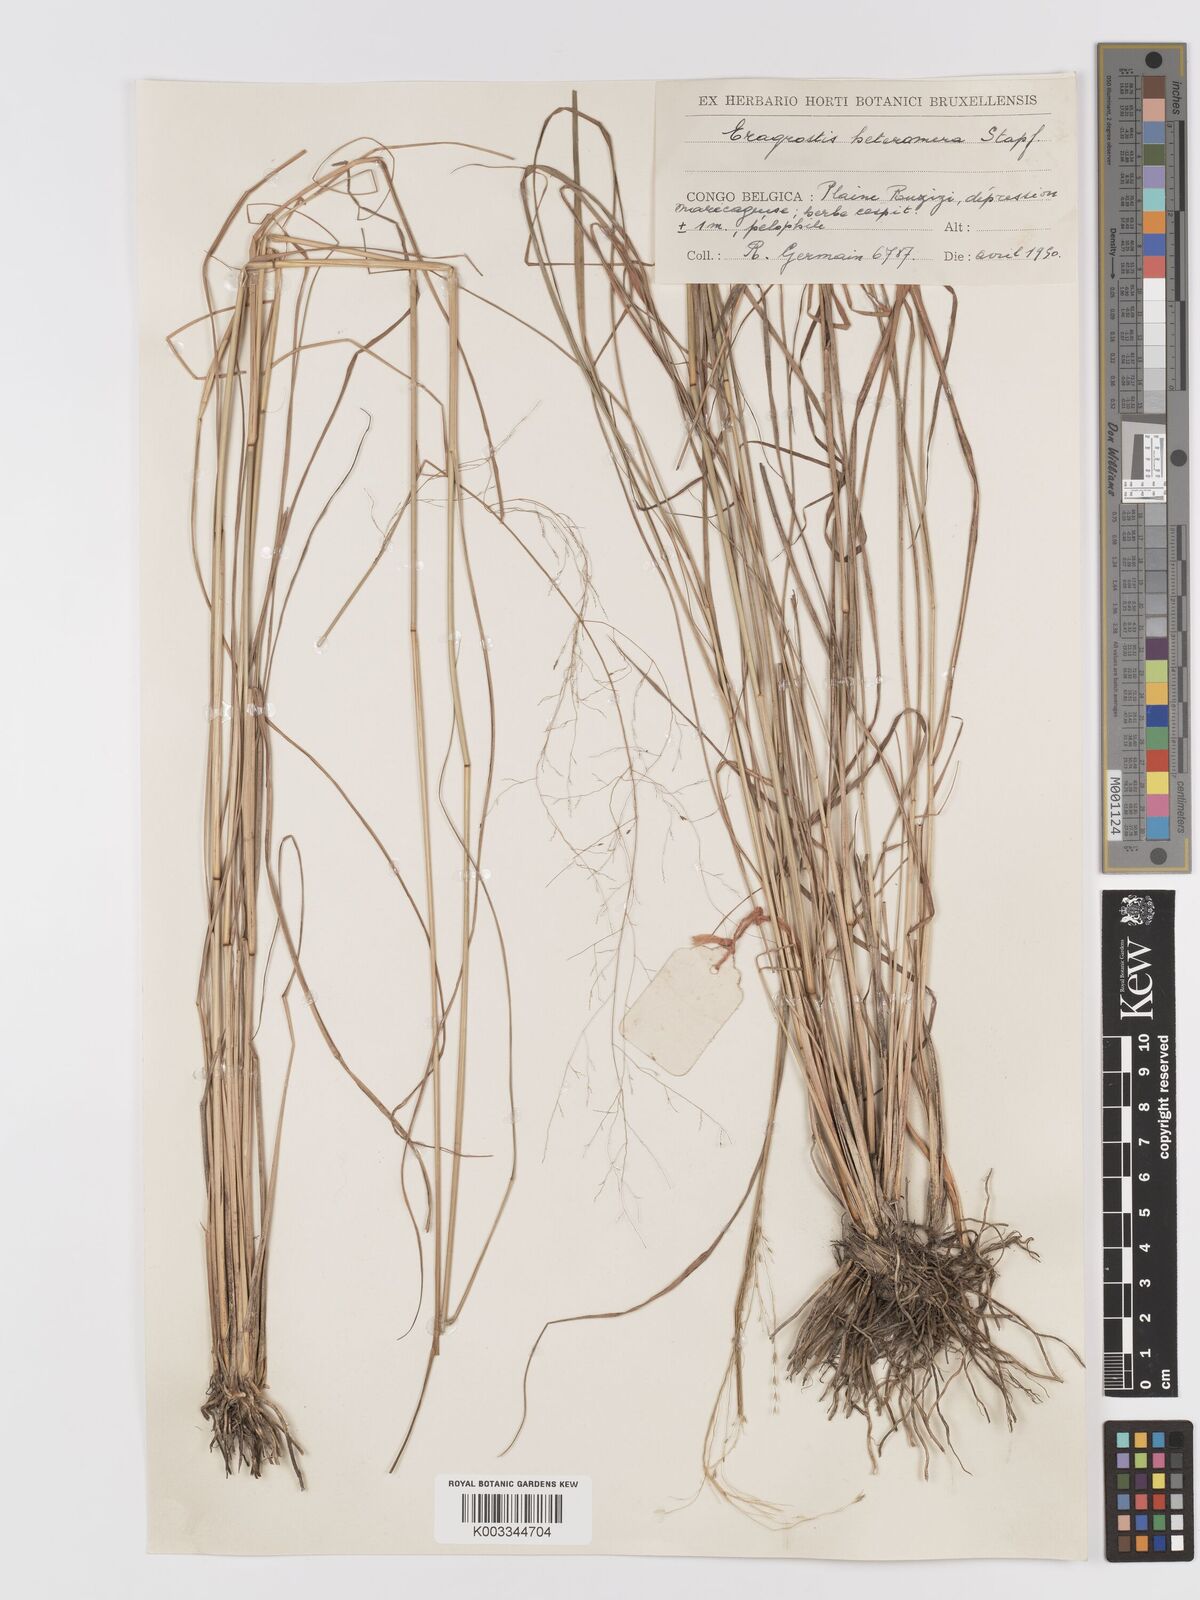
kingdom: Plantae
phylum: Tracheophyta
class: Liliopsida
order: Poales
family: Poaceae
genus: Eragrostis
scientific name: Eragrostis atrovirens
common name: Thalia lovegrass
